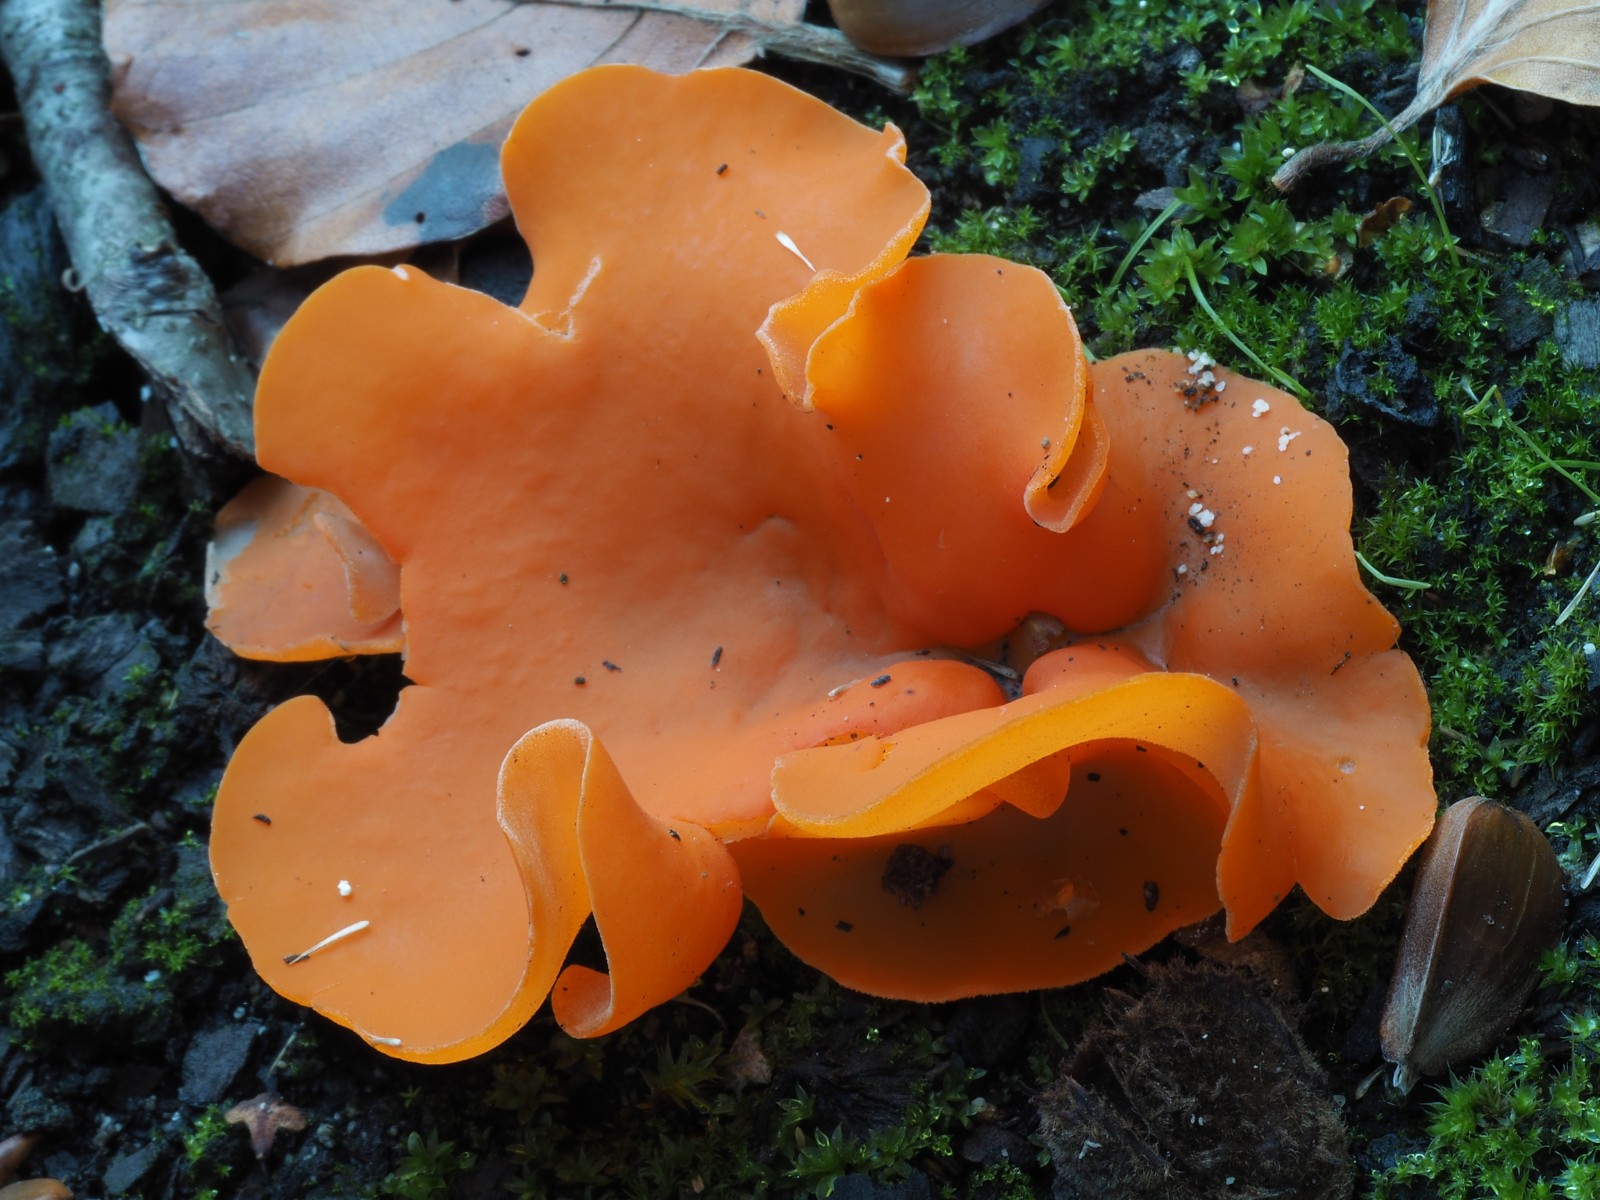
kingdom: Fungi
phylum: Ascomycota
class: Pezizomycetes
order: Pezizales
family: Pyronemataceae
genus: Aleuria
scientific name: Aleuria aurantia
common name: almindelig orangebæger
